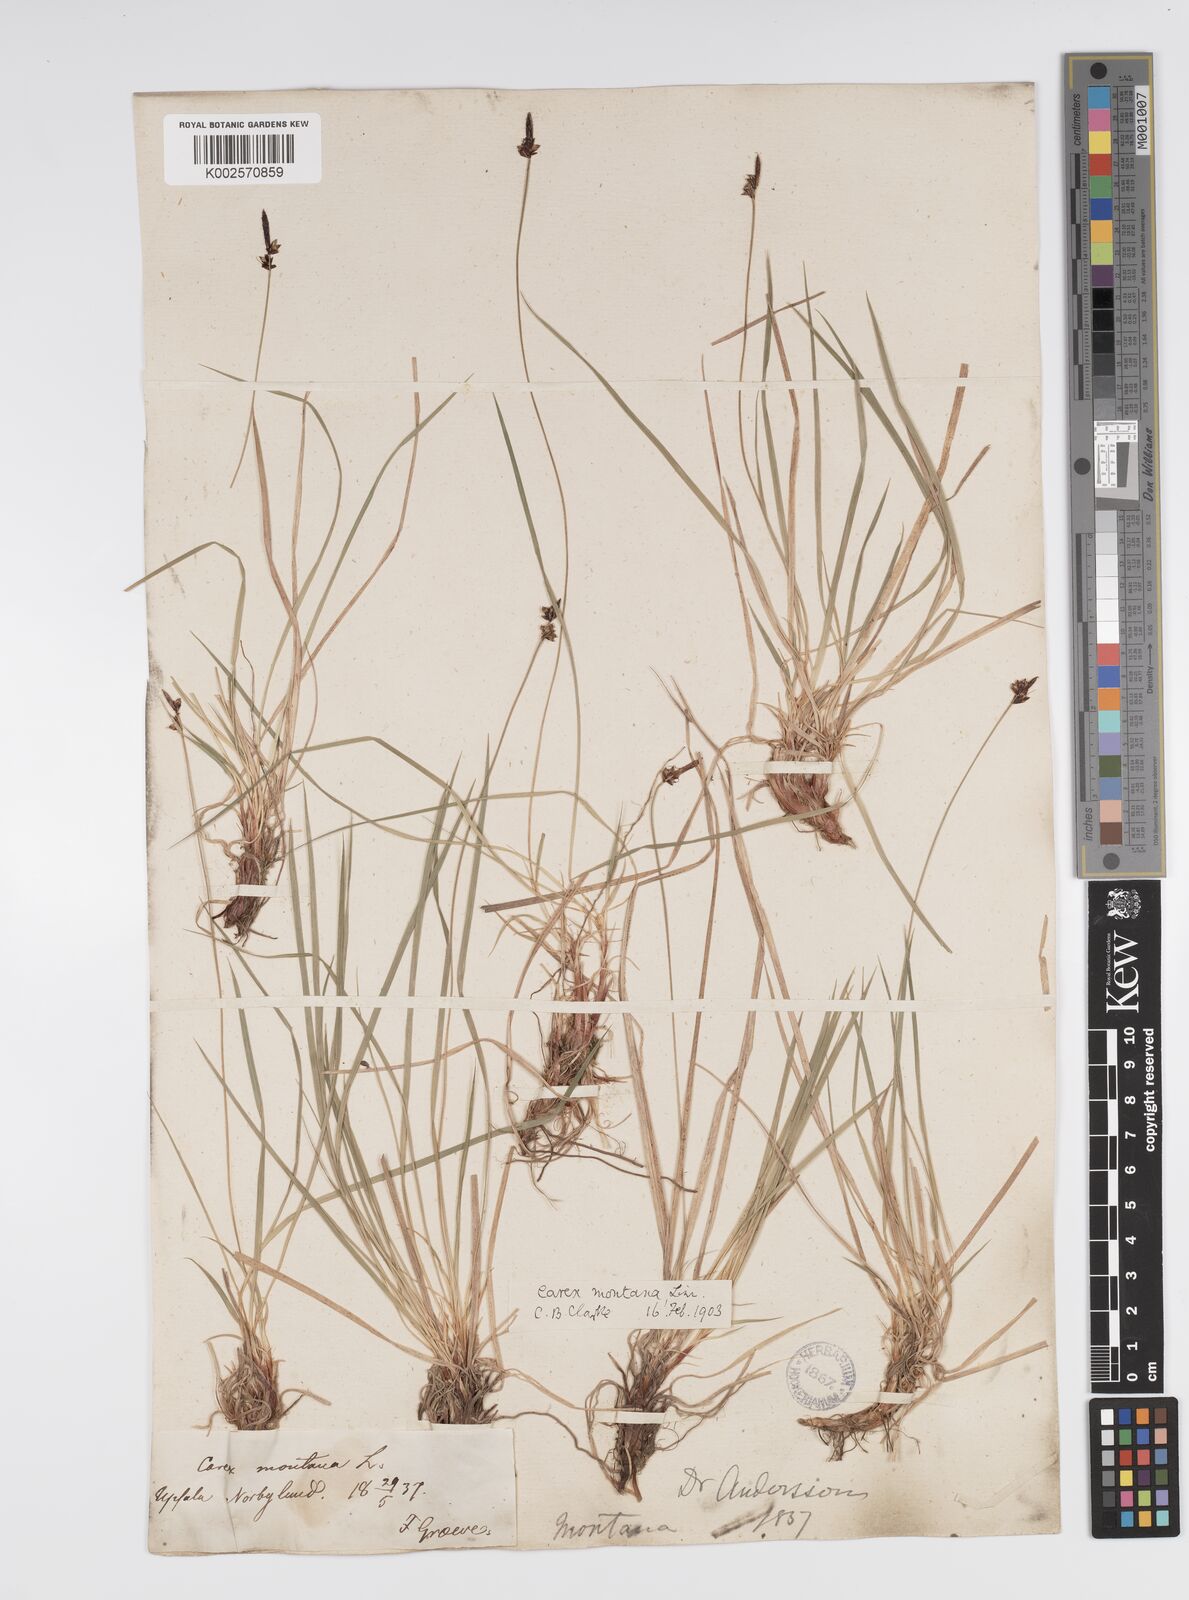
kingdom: Plantae
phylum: Tracheophyta
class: Liliopsida
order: Poales
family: Cyperaceae
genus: Carex
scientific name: Carex montana
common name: Soft-leaved sedge
